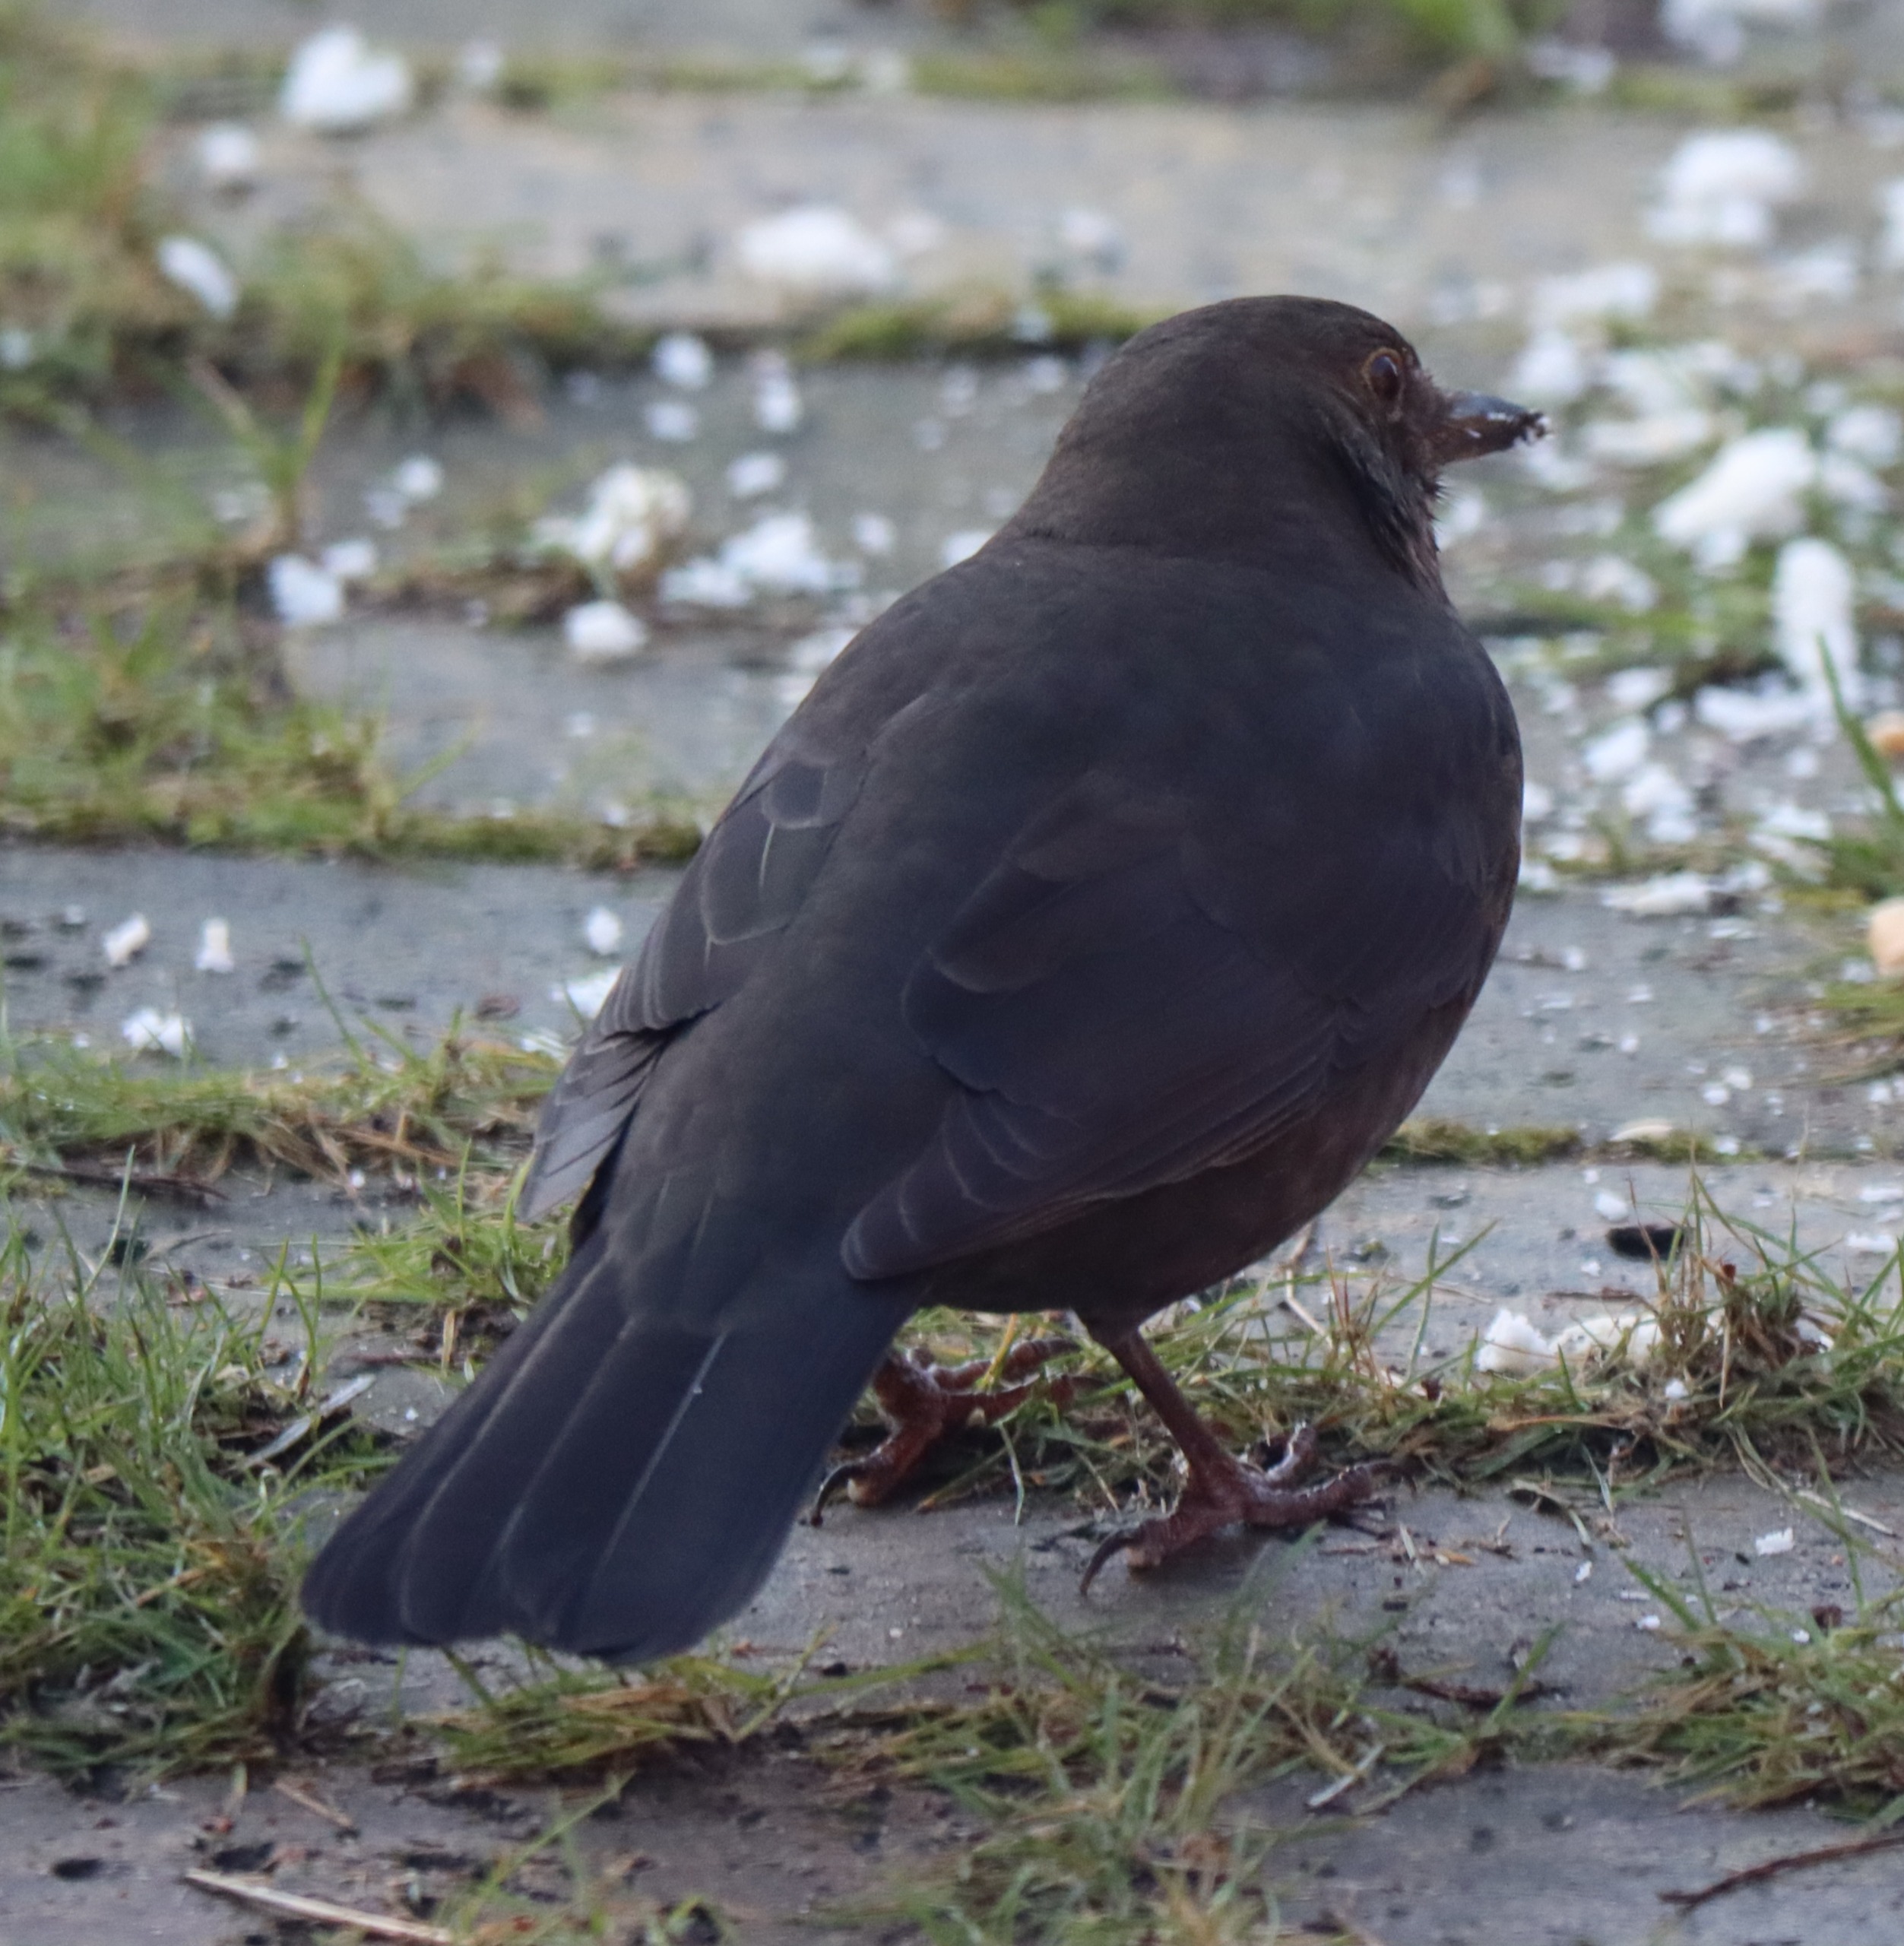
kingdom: Animalia
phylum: Chordata
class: Aves
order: Passeriformes
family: Turdidae
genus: Turdus
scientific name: Turdus merula
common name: Solsort
